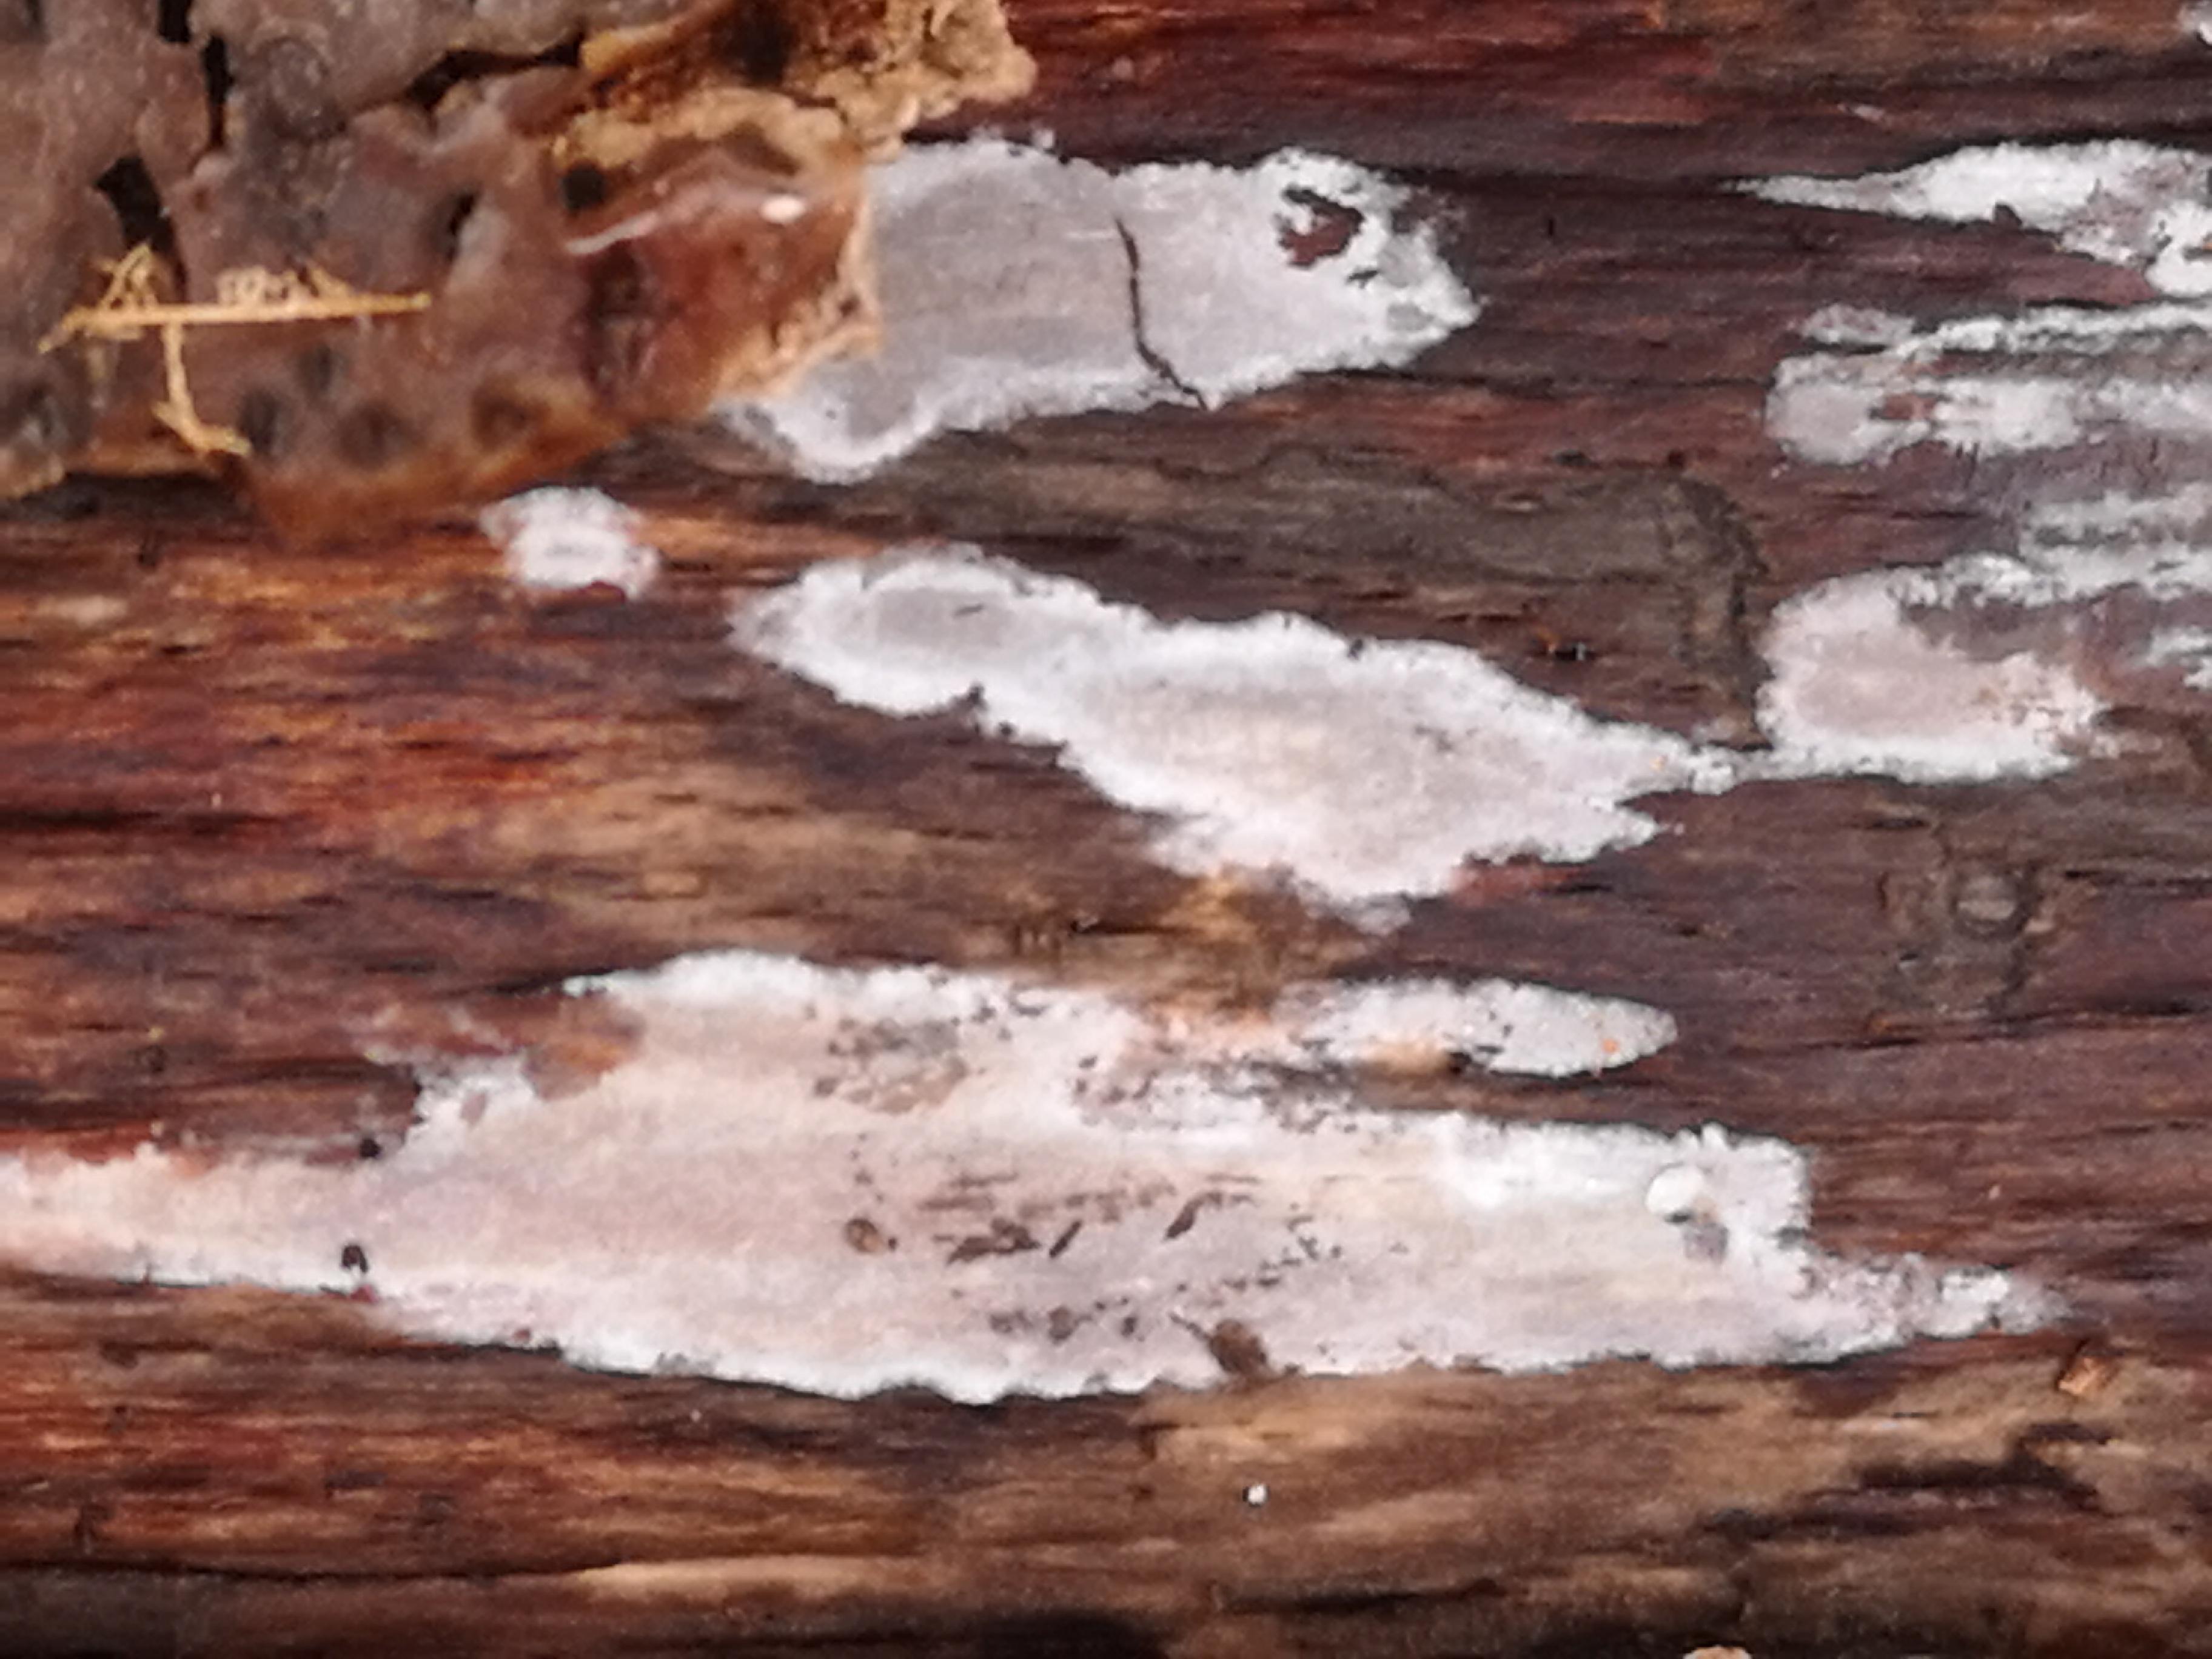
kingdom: Fungi
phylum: Basidiomycota
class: Tremellomycetes
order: Tremellales
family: Exidiaceae
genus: Exidiopsis
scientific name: Exidiopsis effusa
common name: smuk bævrehinde
